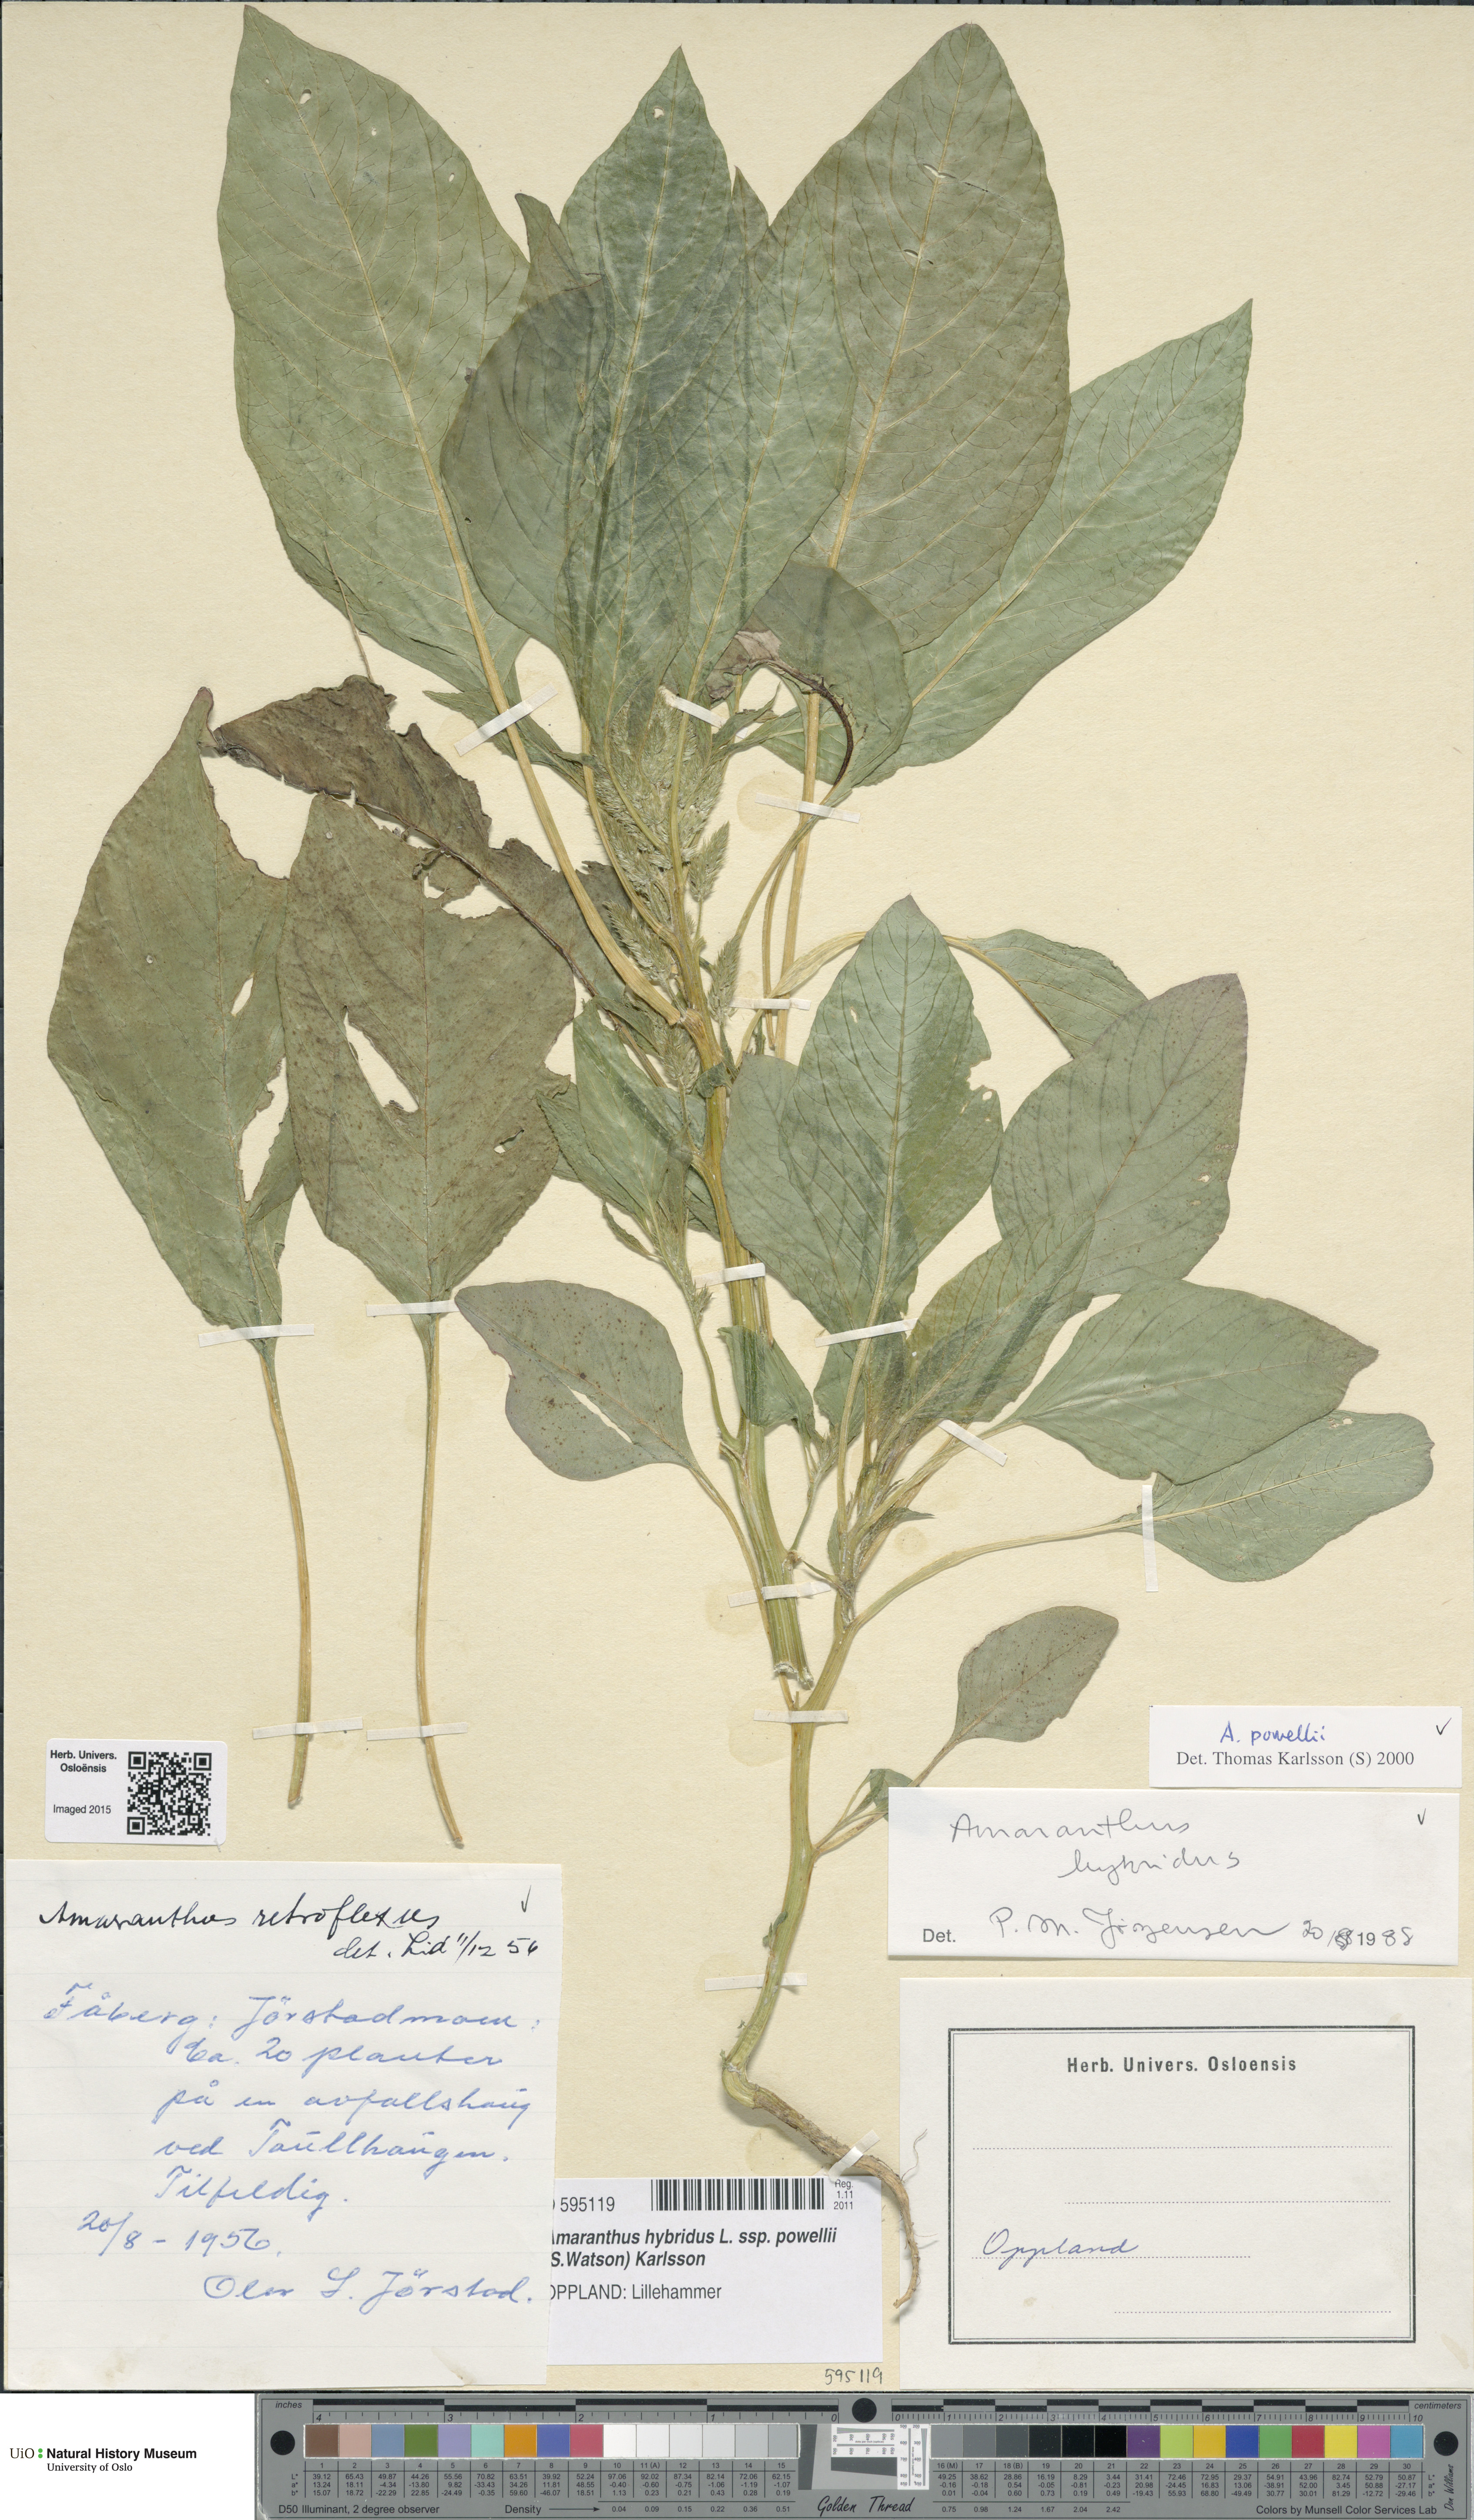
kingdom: Plantae
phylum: Tracheophyta
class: Magnoliopsida
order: Caryophyllales
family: Amaranthaceae
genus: Amaranthus
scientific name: Amaranthus powellii
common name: Powell's amaranth
